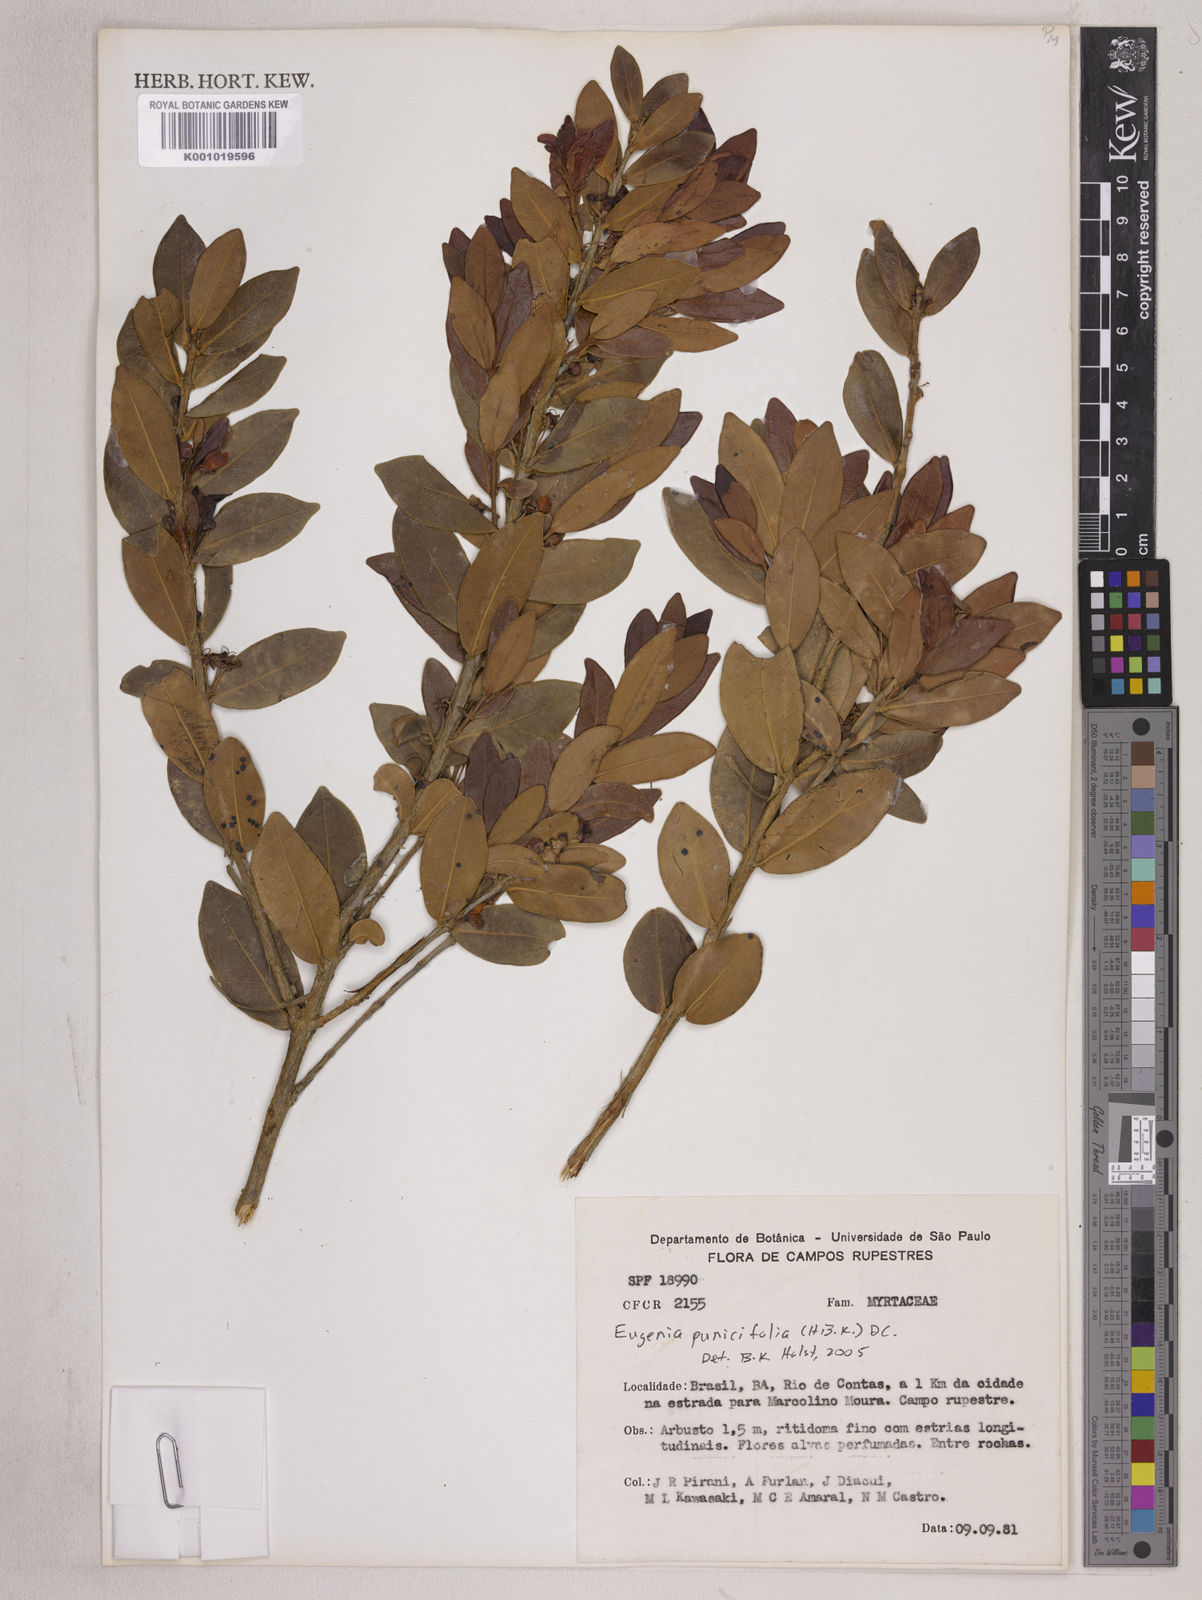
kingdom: Plantae
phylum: Tracheophyta
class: Magnoliopsida
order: Myrtales
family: Myrtaceae
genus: Eugenia
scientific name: Eugenia punicifolia
